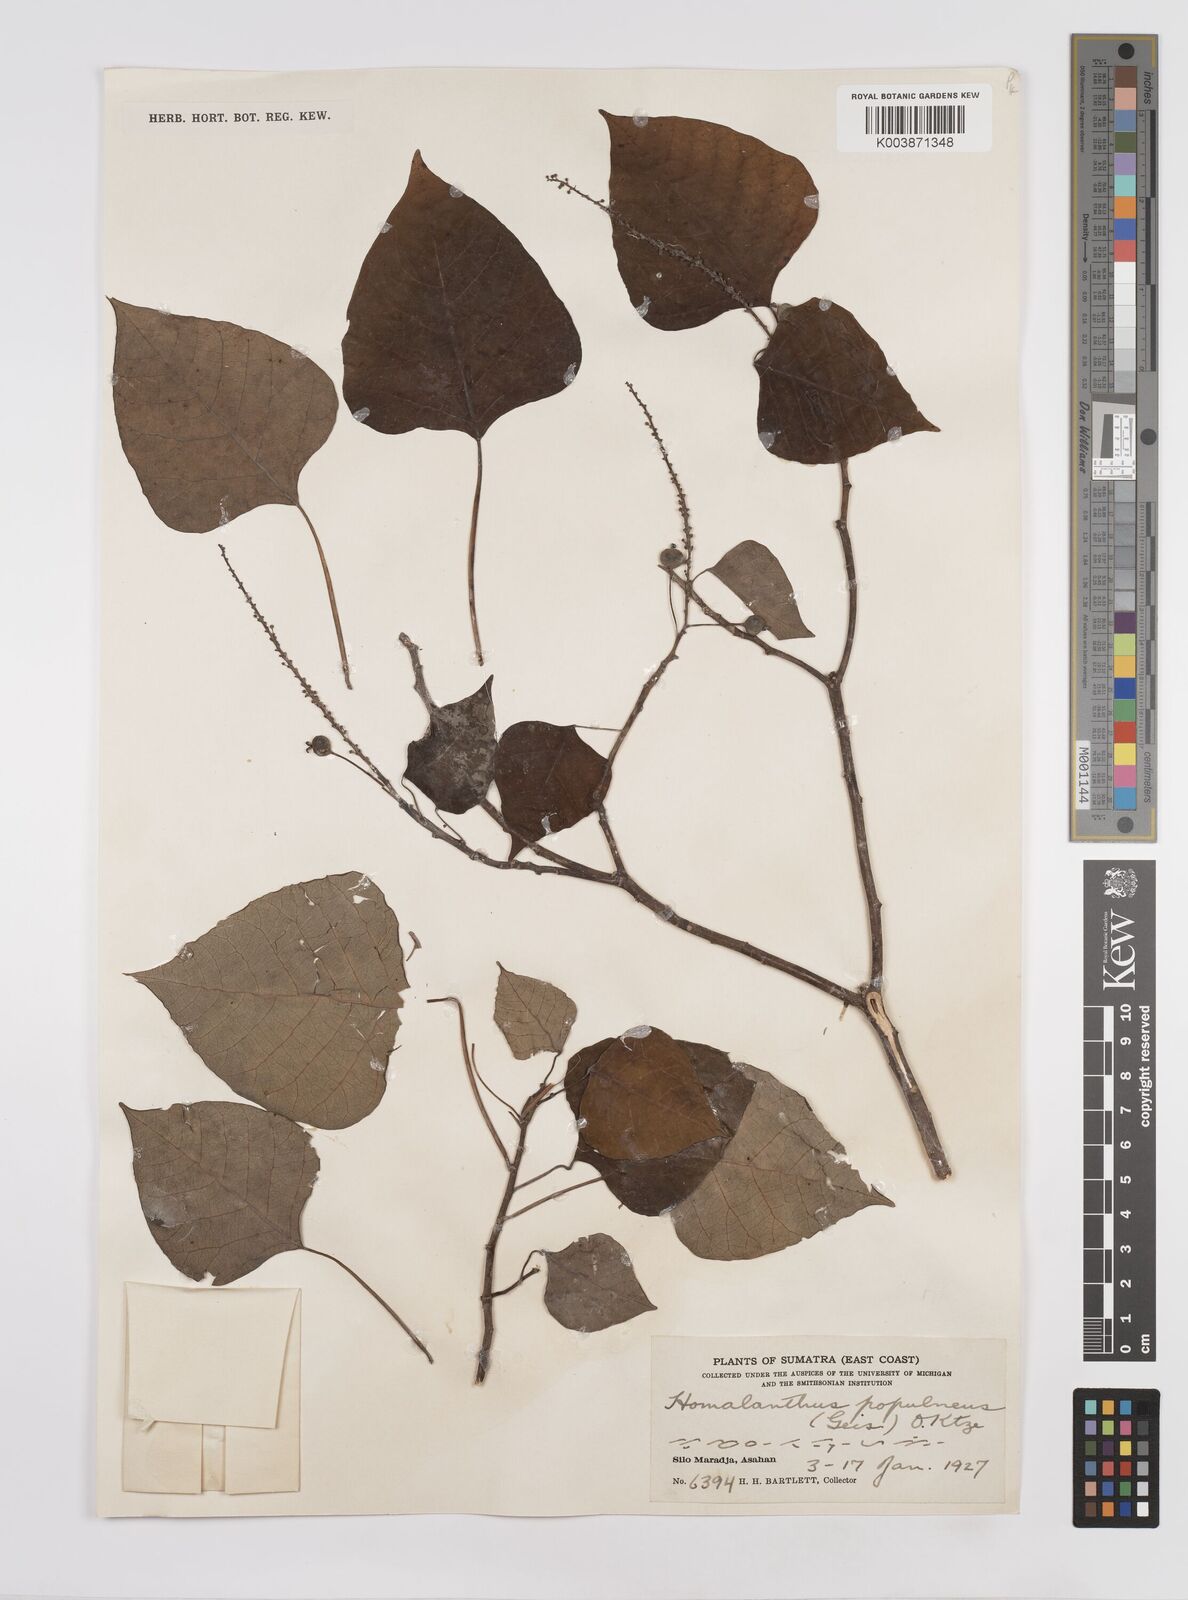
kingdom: Plantae
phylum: Tracheophyta
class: Magnoliopsida
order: Malpighiales
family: Euphorbiaceae
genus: Homalanthus
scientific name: Homalanthus populneus
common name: Spurge
